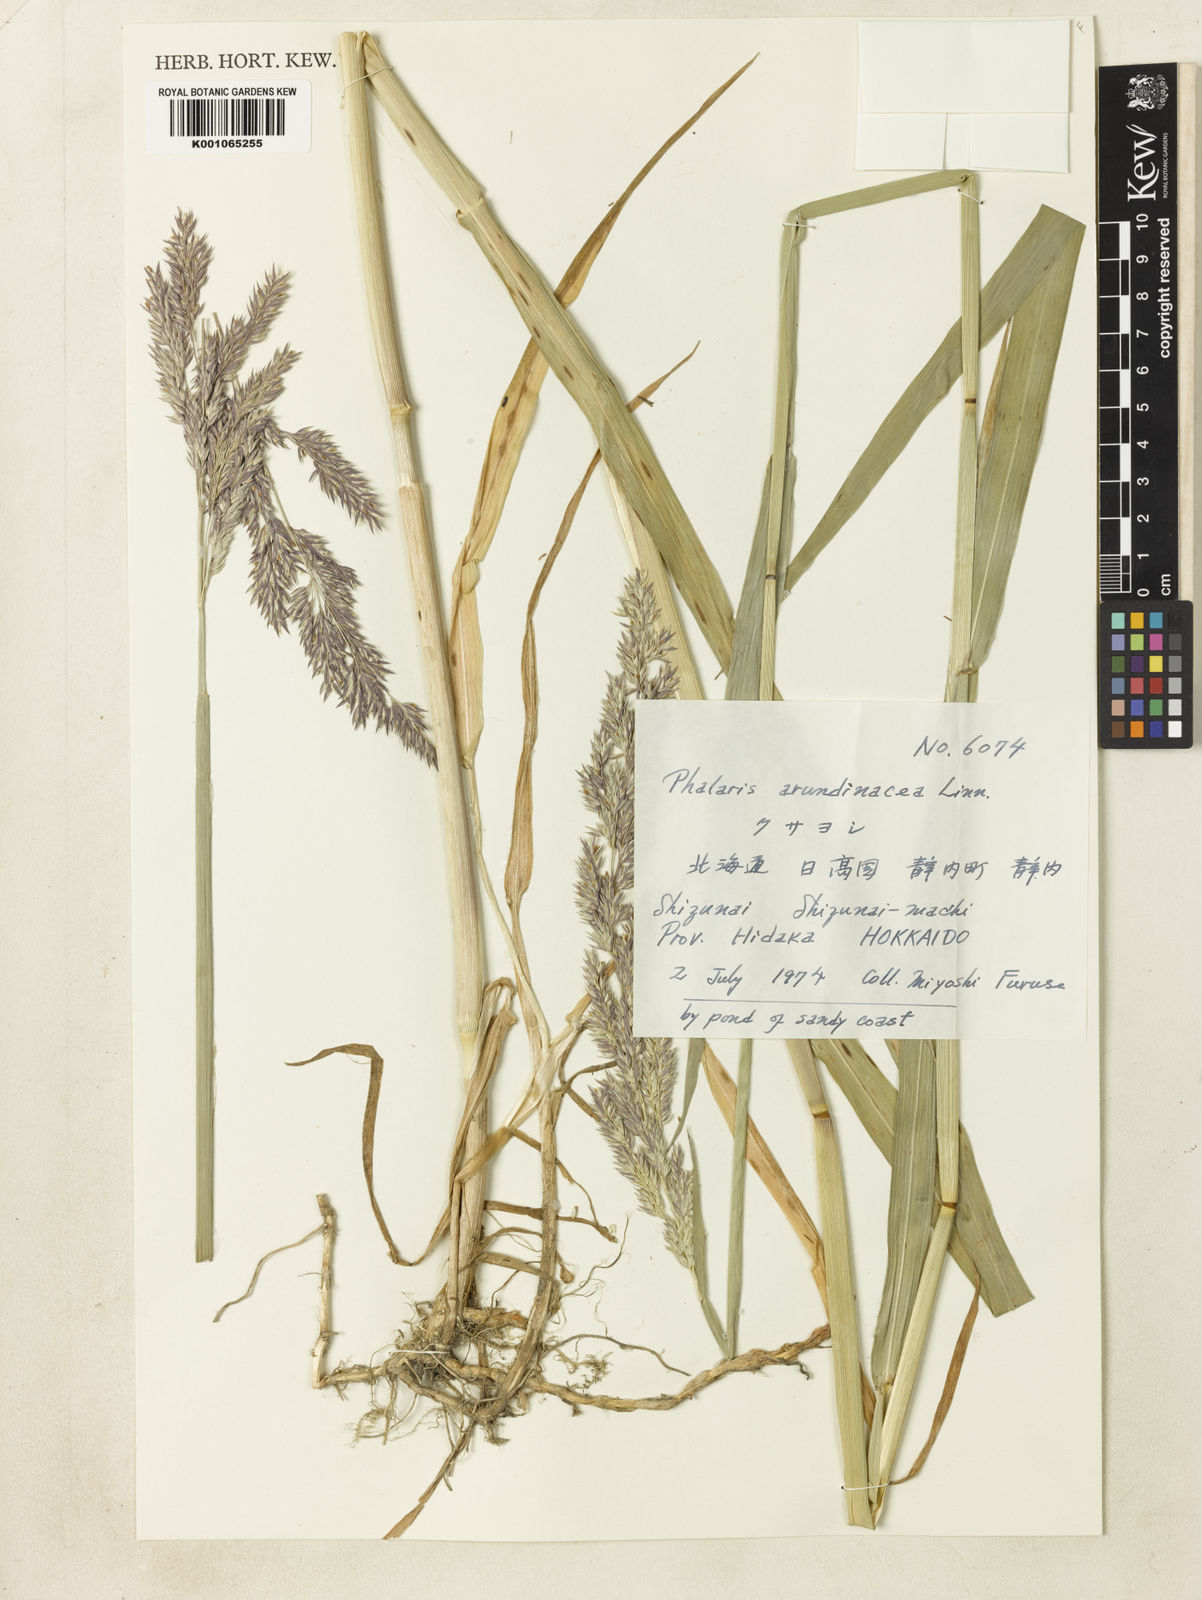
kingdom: Plantae
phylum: Tracheophyta
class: Liliopsida
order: Poales
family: Poaceae
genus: Phalaris
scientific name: Phalaris arundinacea
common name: Reed canary-grass
